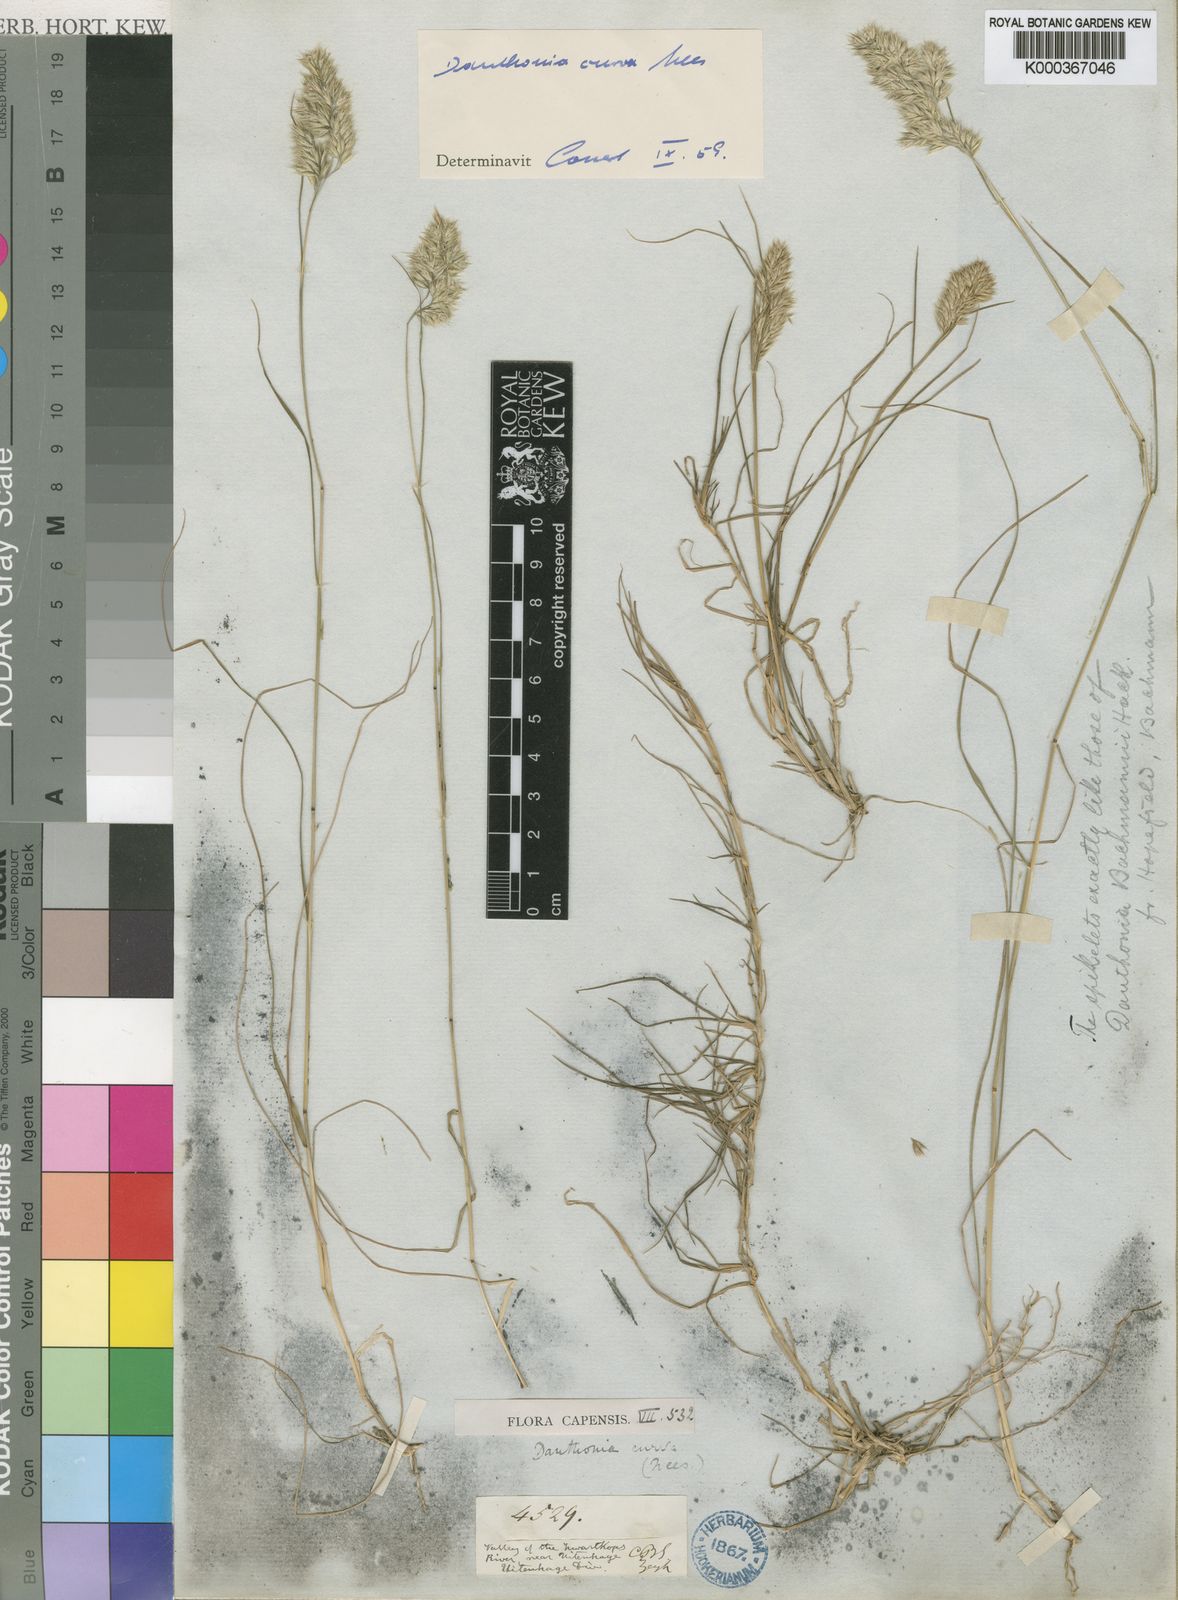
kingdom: Plantae
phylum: Tracheophyta
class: Liliopsida
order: Poales
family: Poaceae
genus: Rytidosperma
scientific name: Rytidosperma
